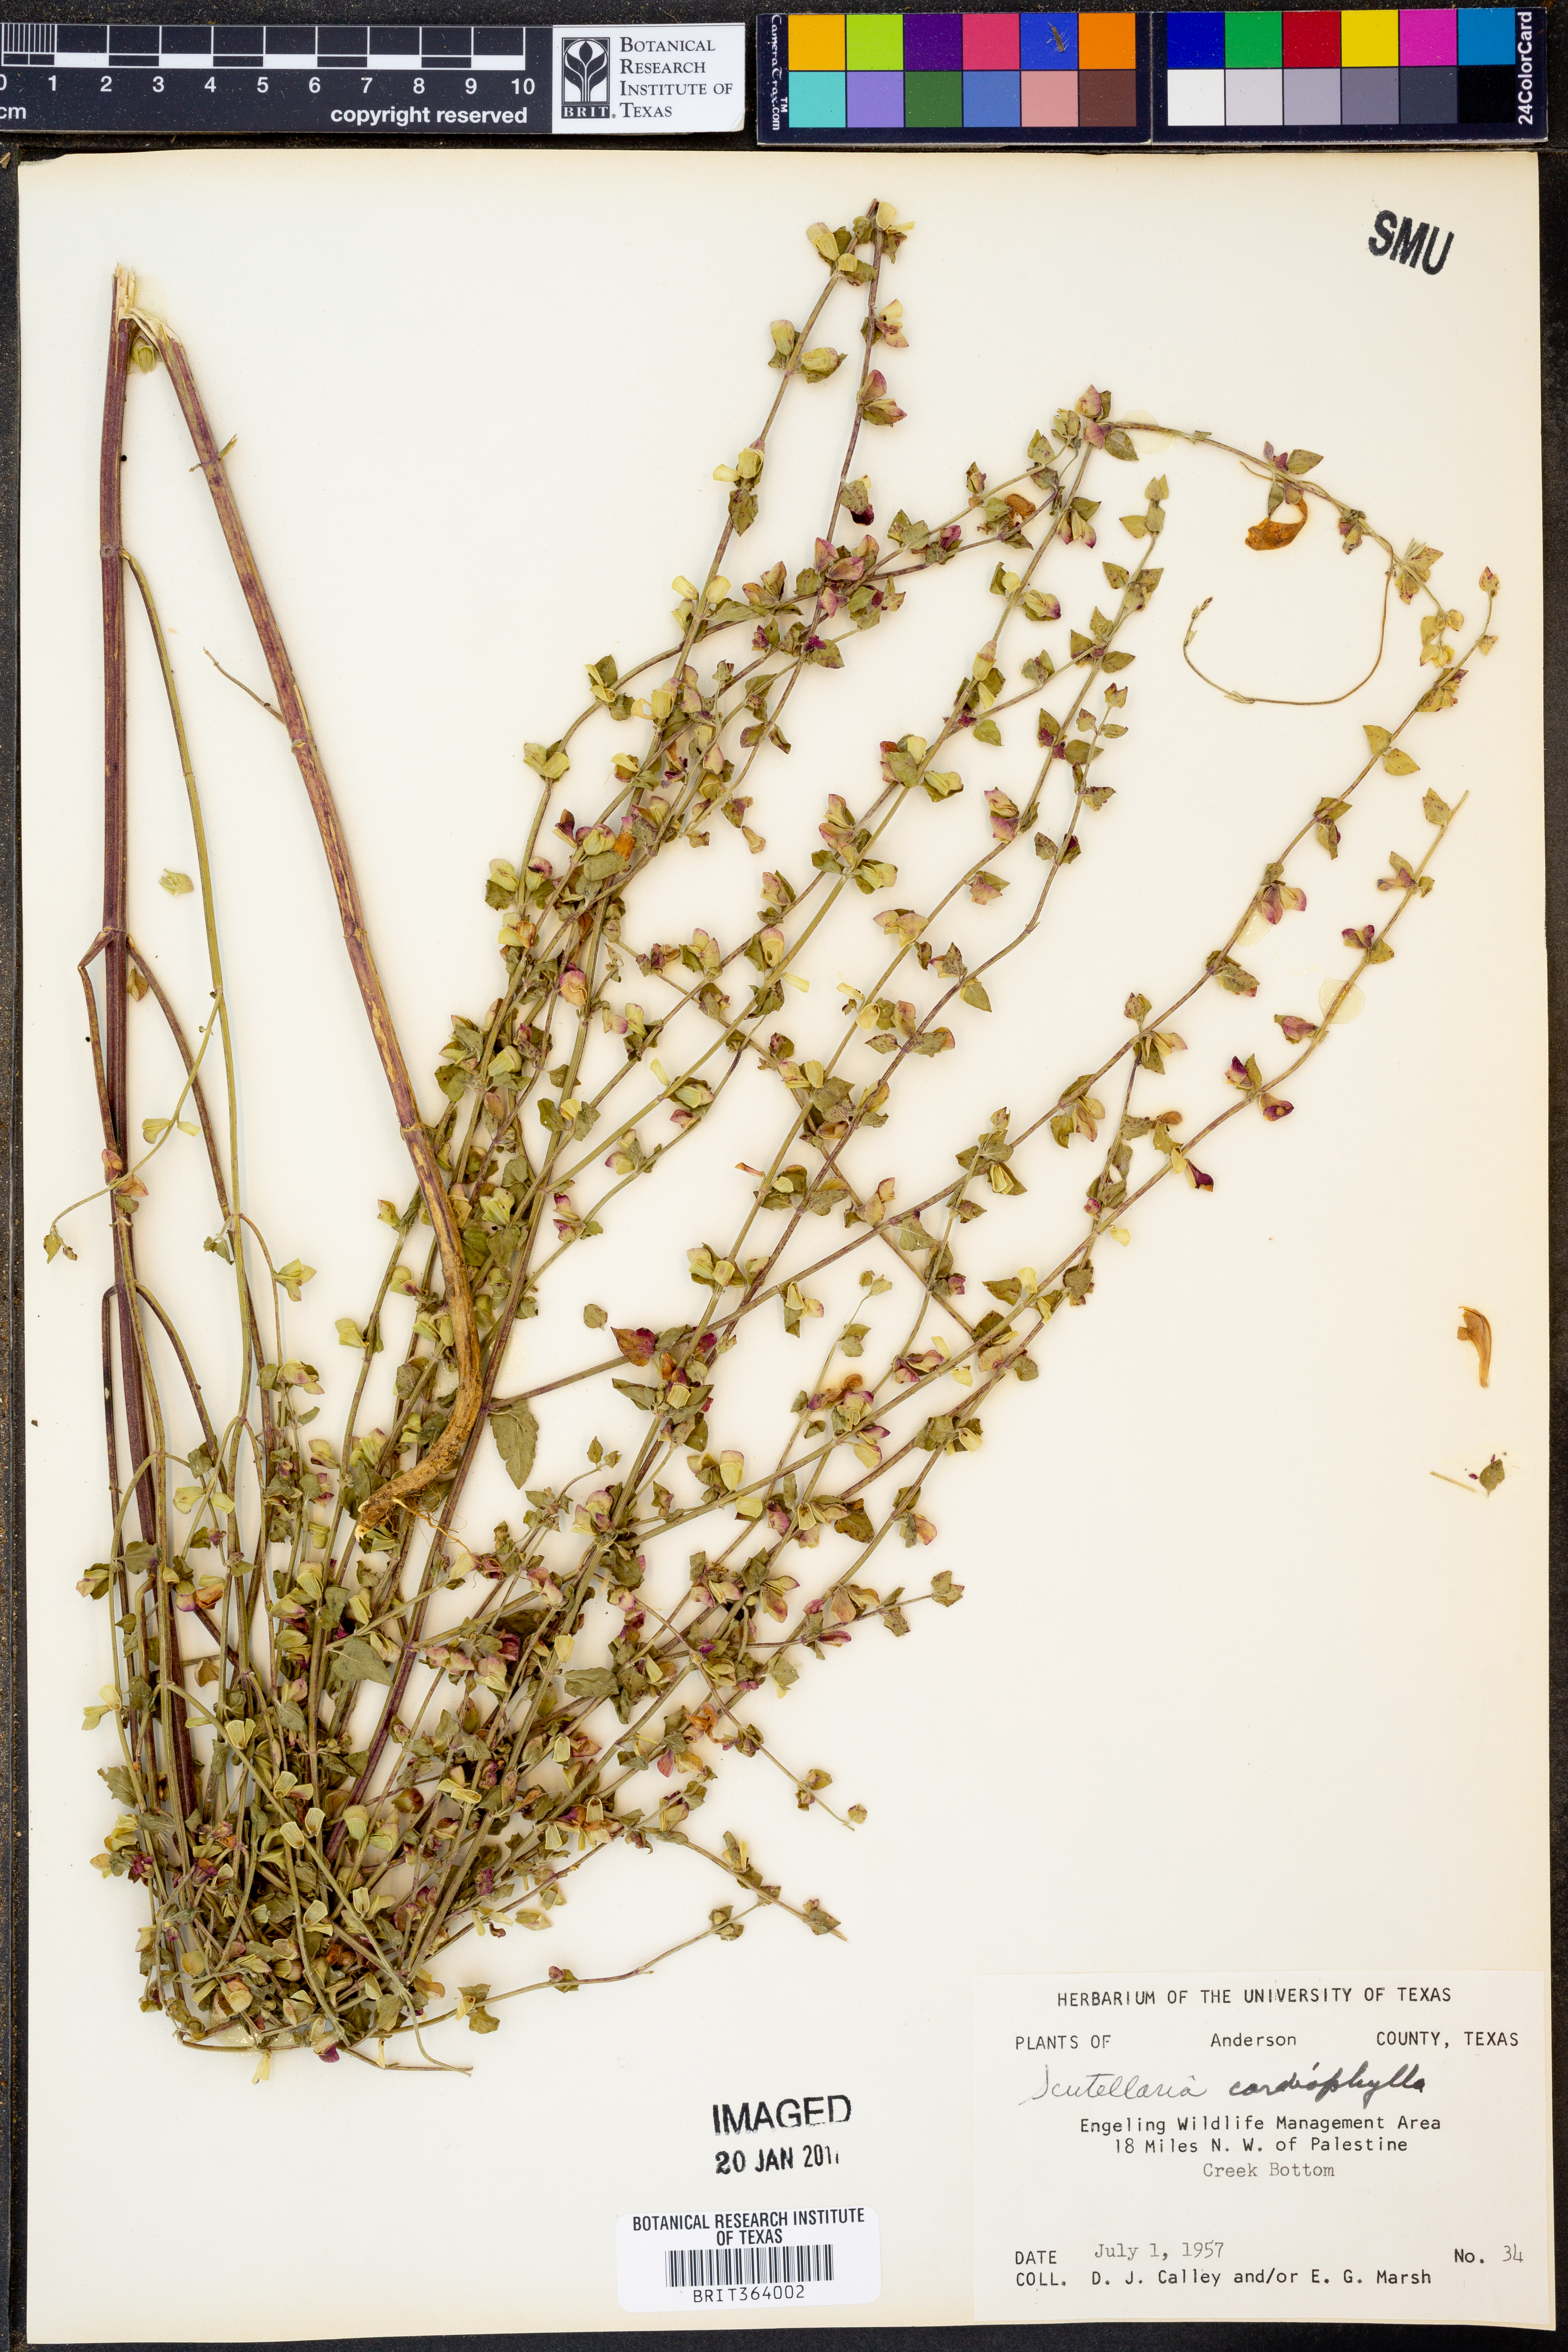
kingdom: Plantae
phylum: Tracheophyta
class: Magnoliopsida
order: Lamiales
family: Lamiaceae
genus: Scutellaria
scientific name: Scutellaria cardiophylla
